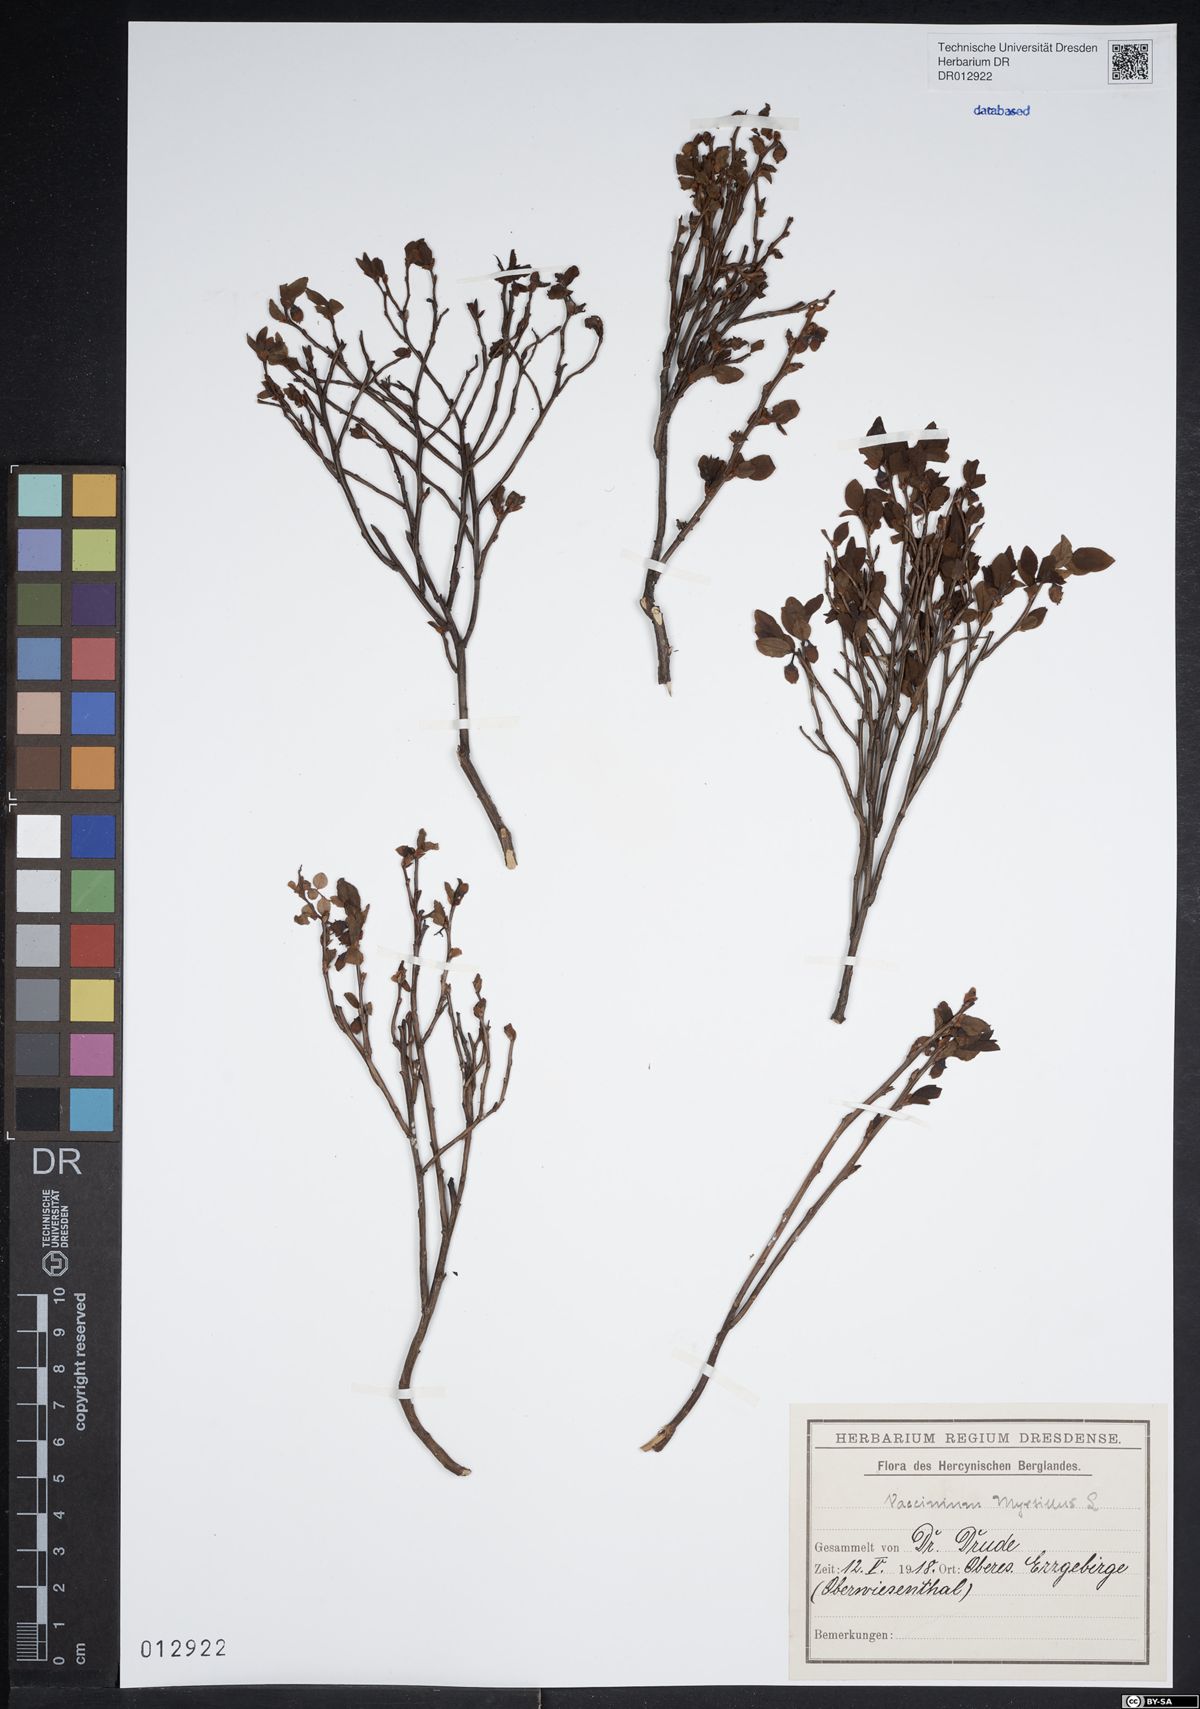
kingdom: Plantae
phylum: Tracheophyta
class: Magnoliopsida
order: Ericales
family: Ericaceae
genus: Vaccinium
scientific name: Vaccinium myrtillus
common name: Bilberry
